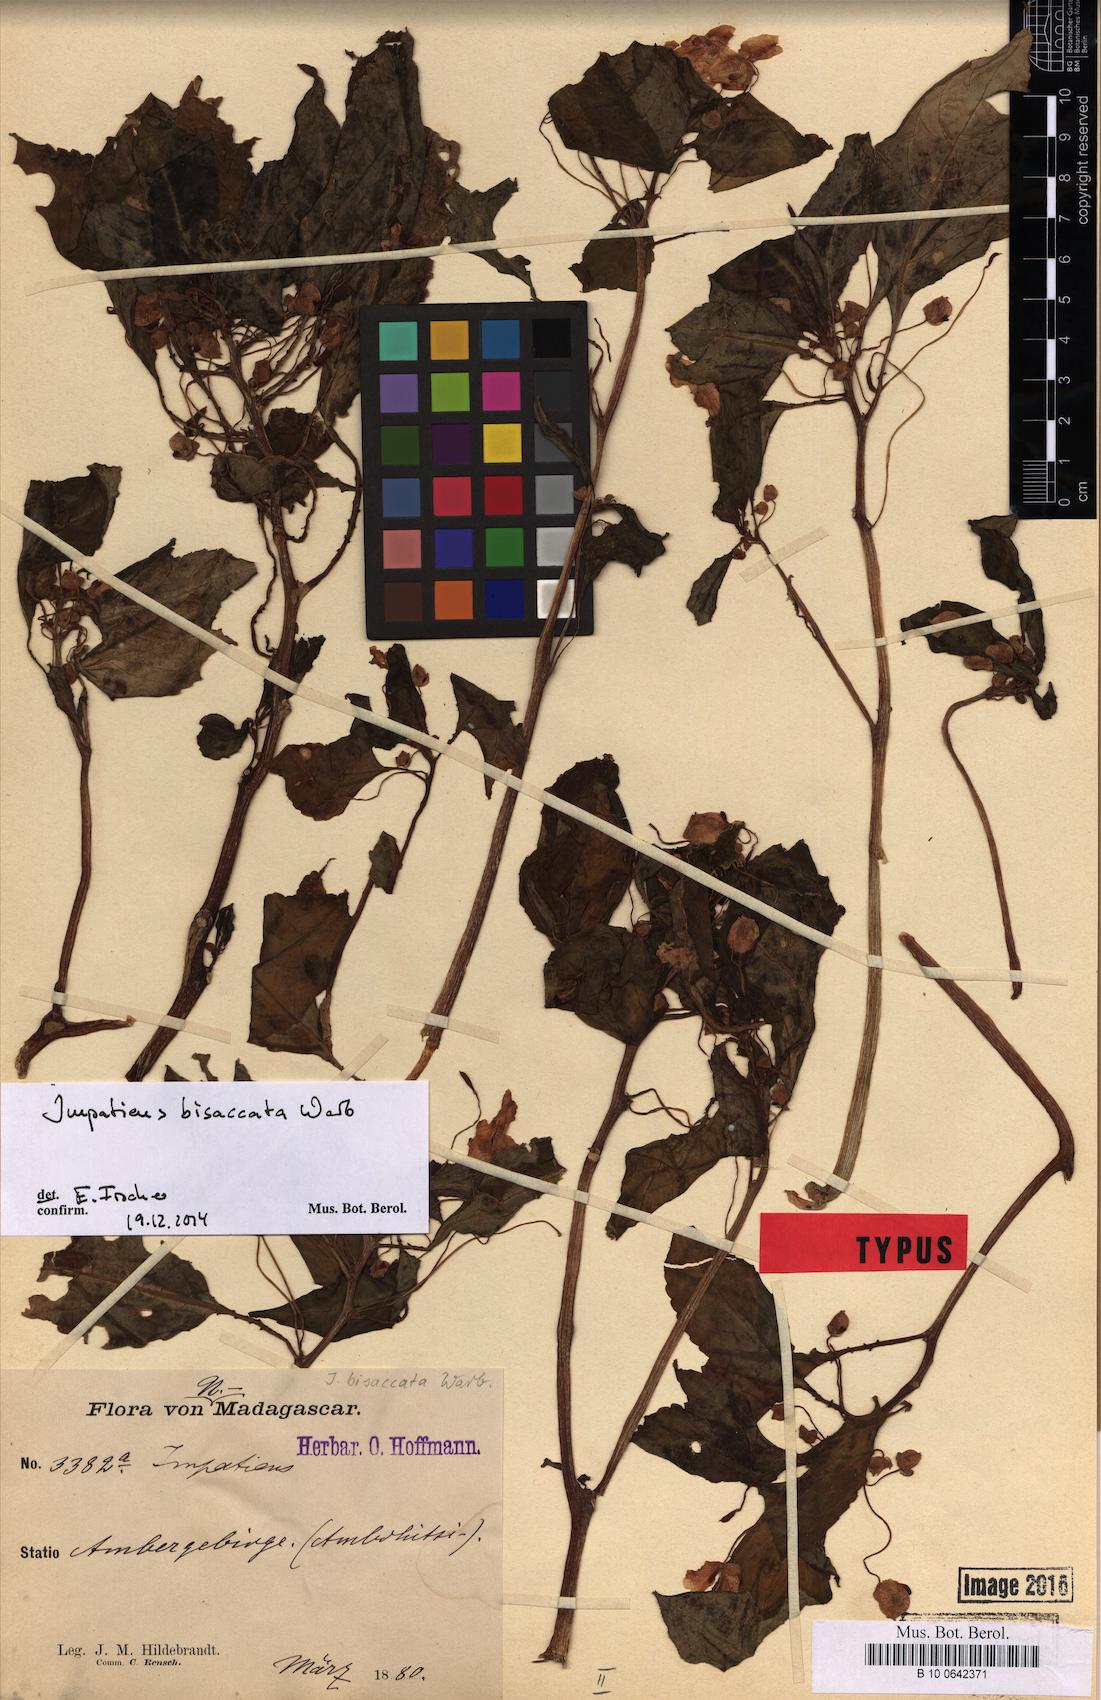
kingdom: Plantae
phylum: Tracheophyta
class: Magnoliopsida
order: Ericales
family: Balsaminaceae
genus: Impatiens
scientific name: Impatiens bisaccata
